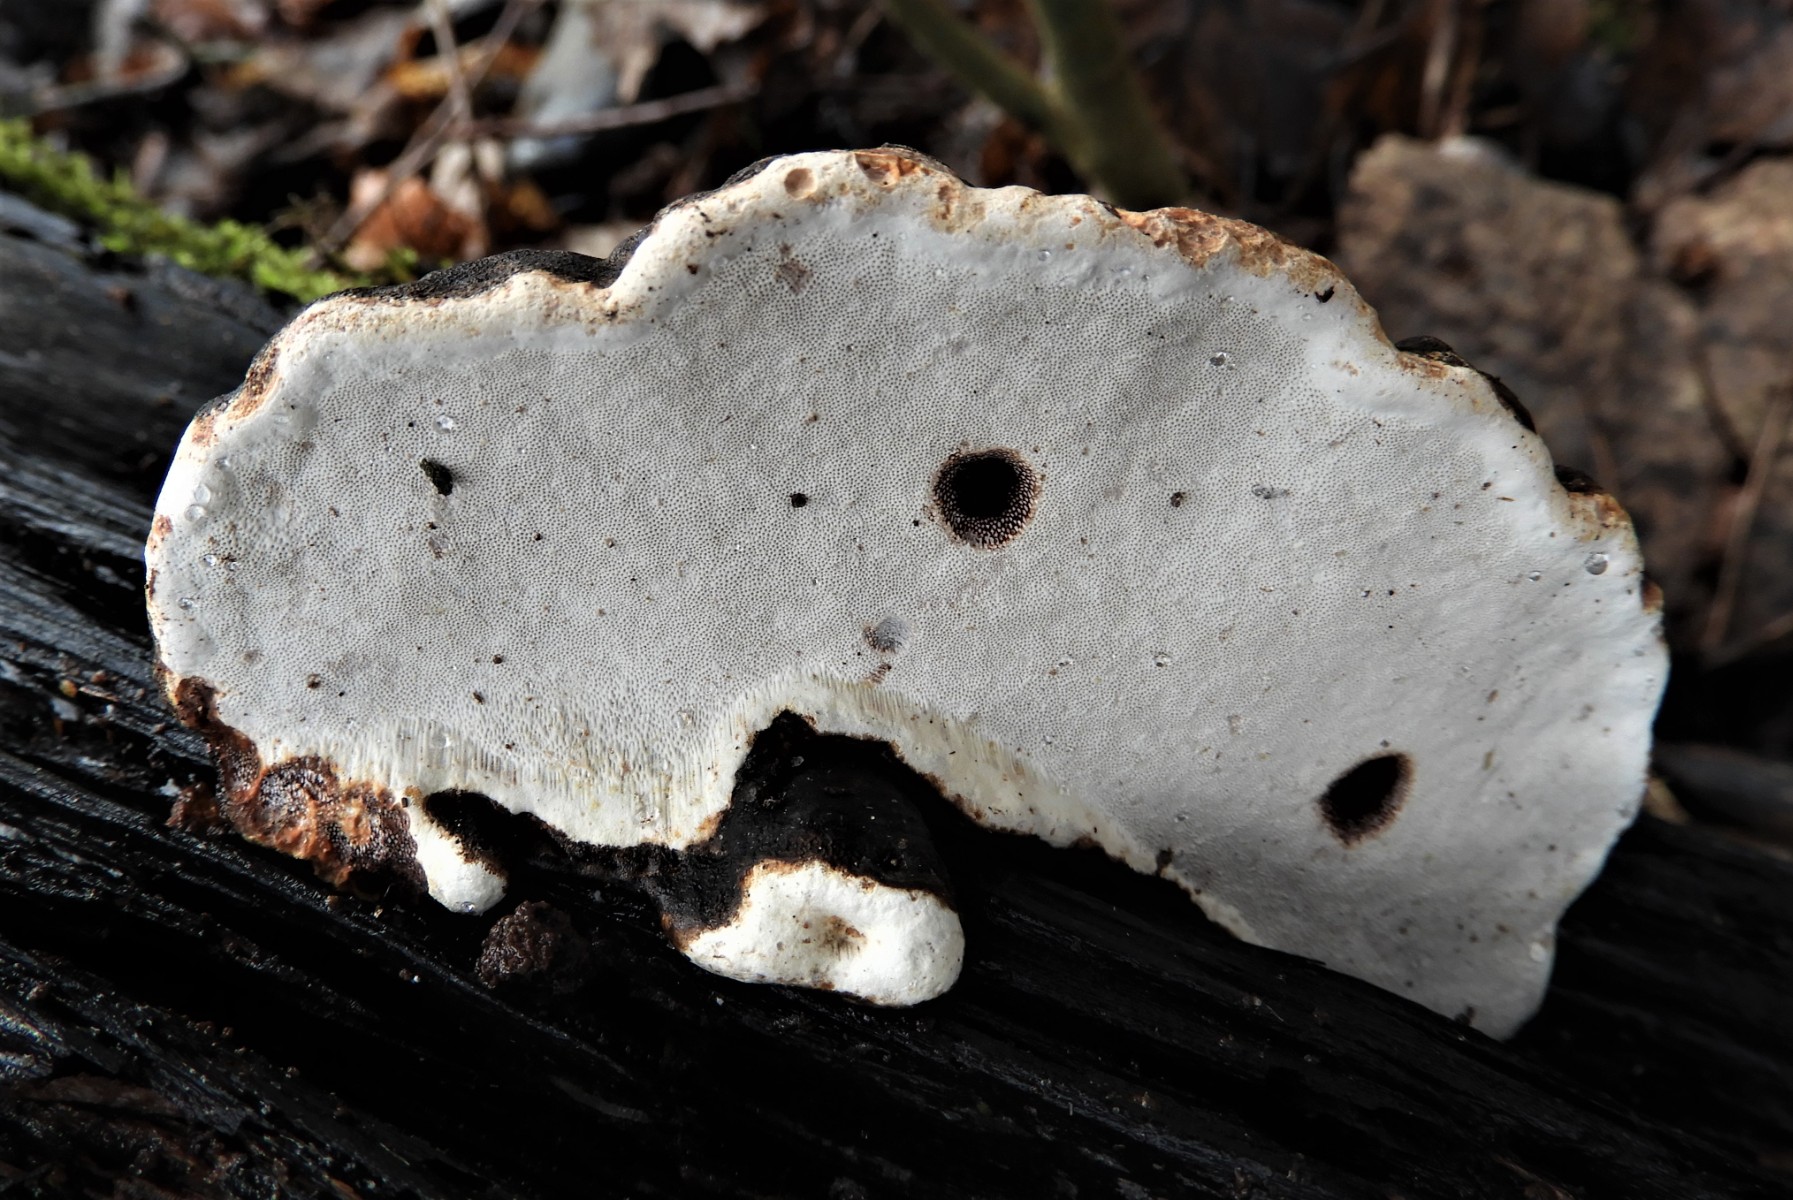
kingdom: Fungi
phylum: Basidiomycota
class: Agaricomycetes
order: Polyporales
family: Polyporaceae
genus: Fomes
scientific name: Fomes fomentarius
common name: tøndersvamp
